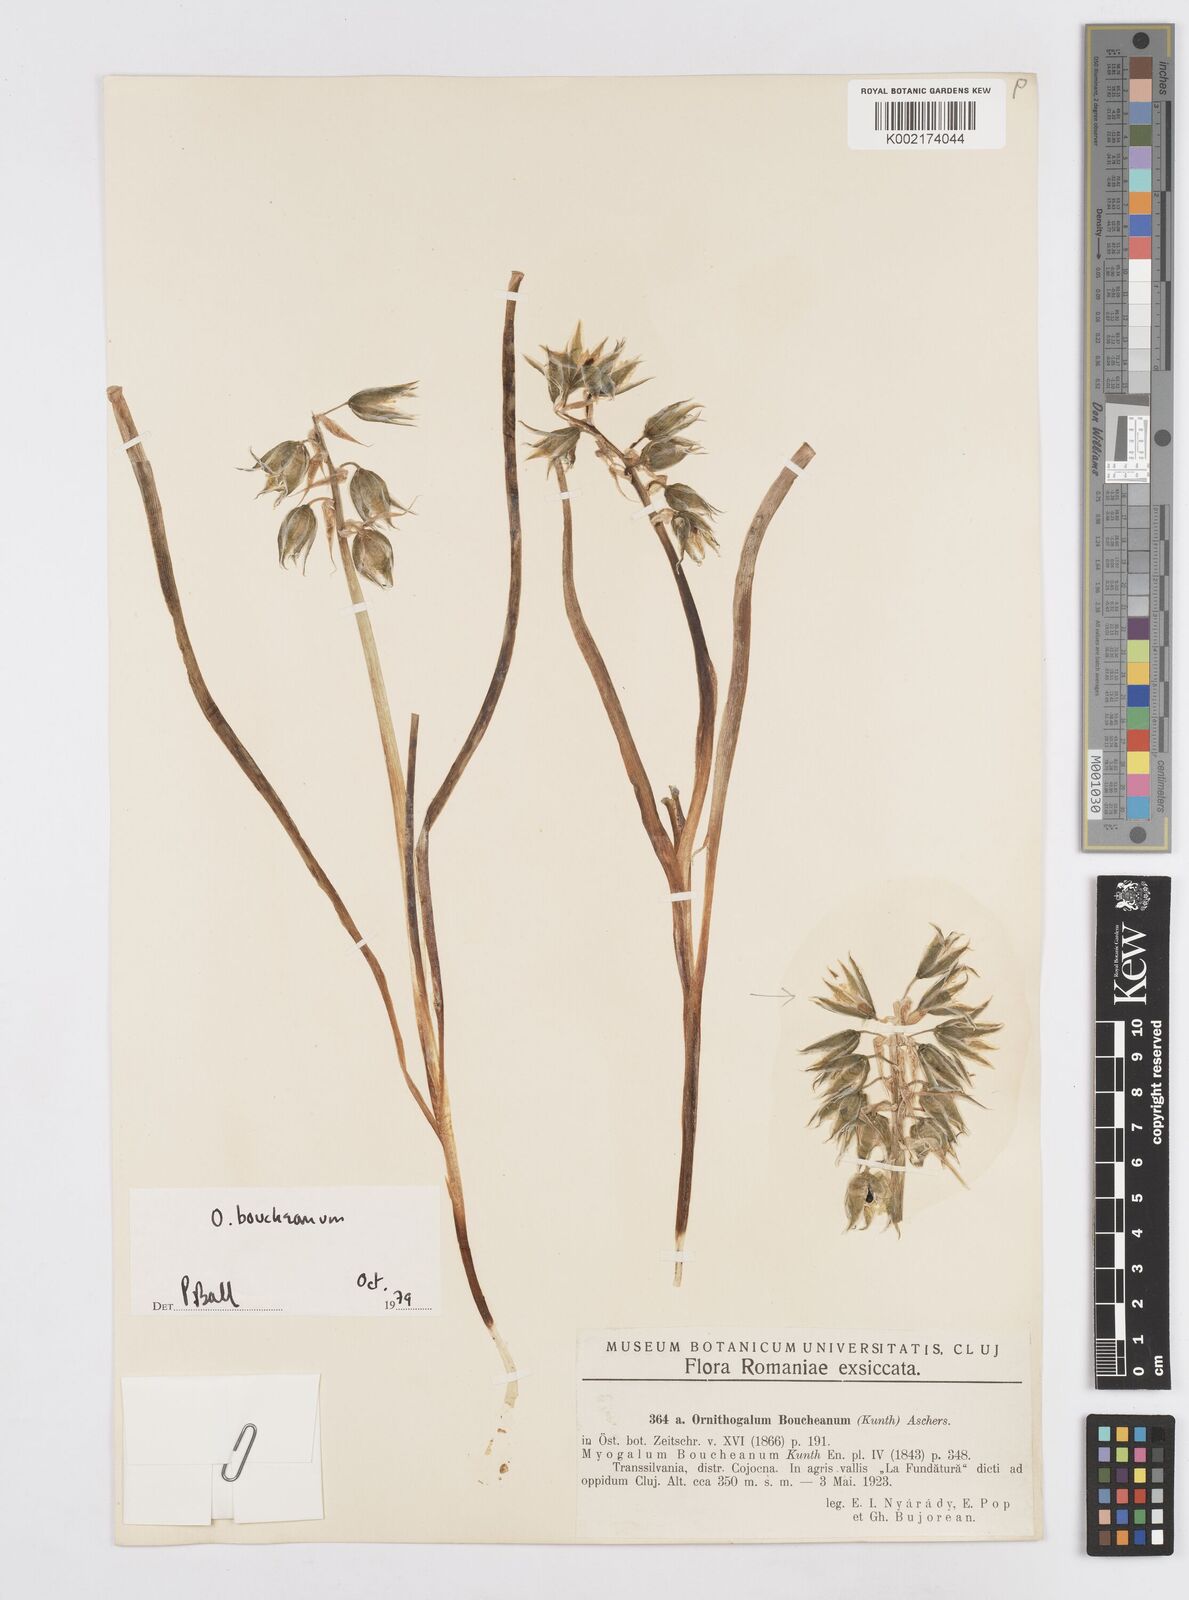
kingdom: Plantae
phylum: Tracheophyta
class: Liliopsida
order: Asparagales
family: Asparagaceae
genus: Ornithogalum
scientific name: Ornithogalum boucheanum
